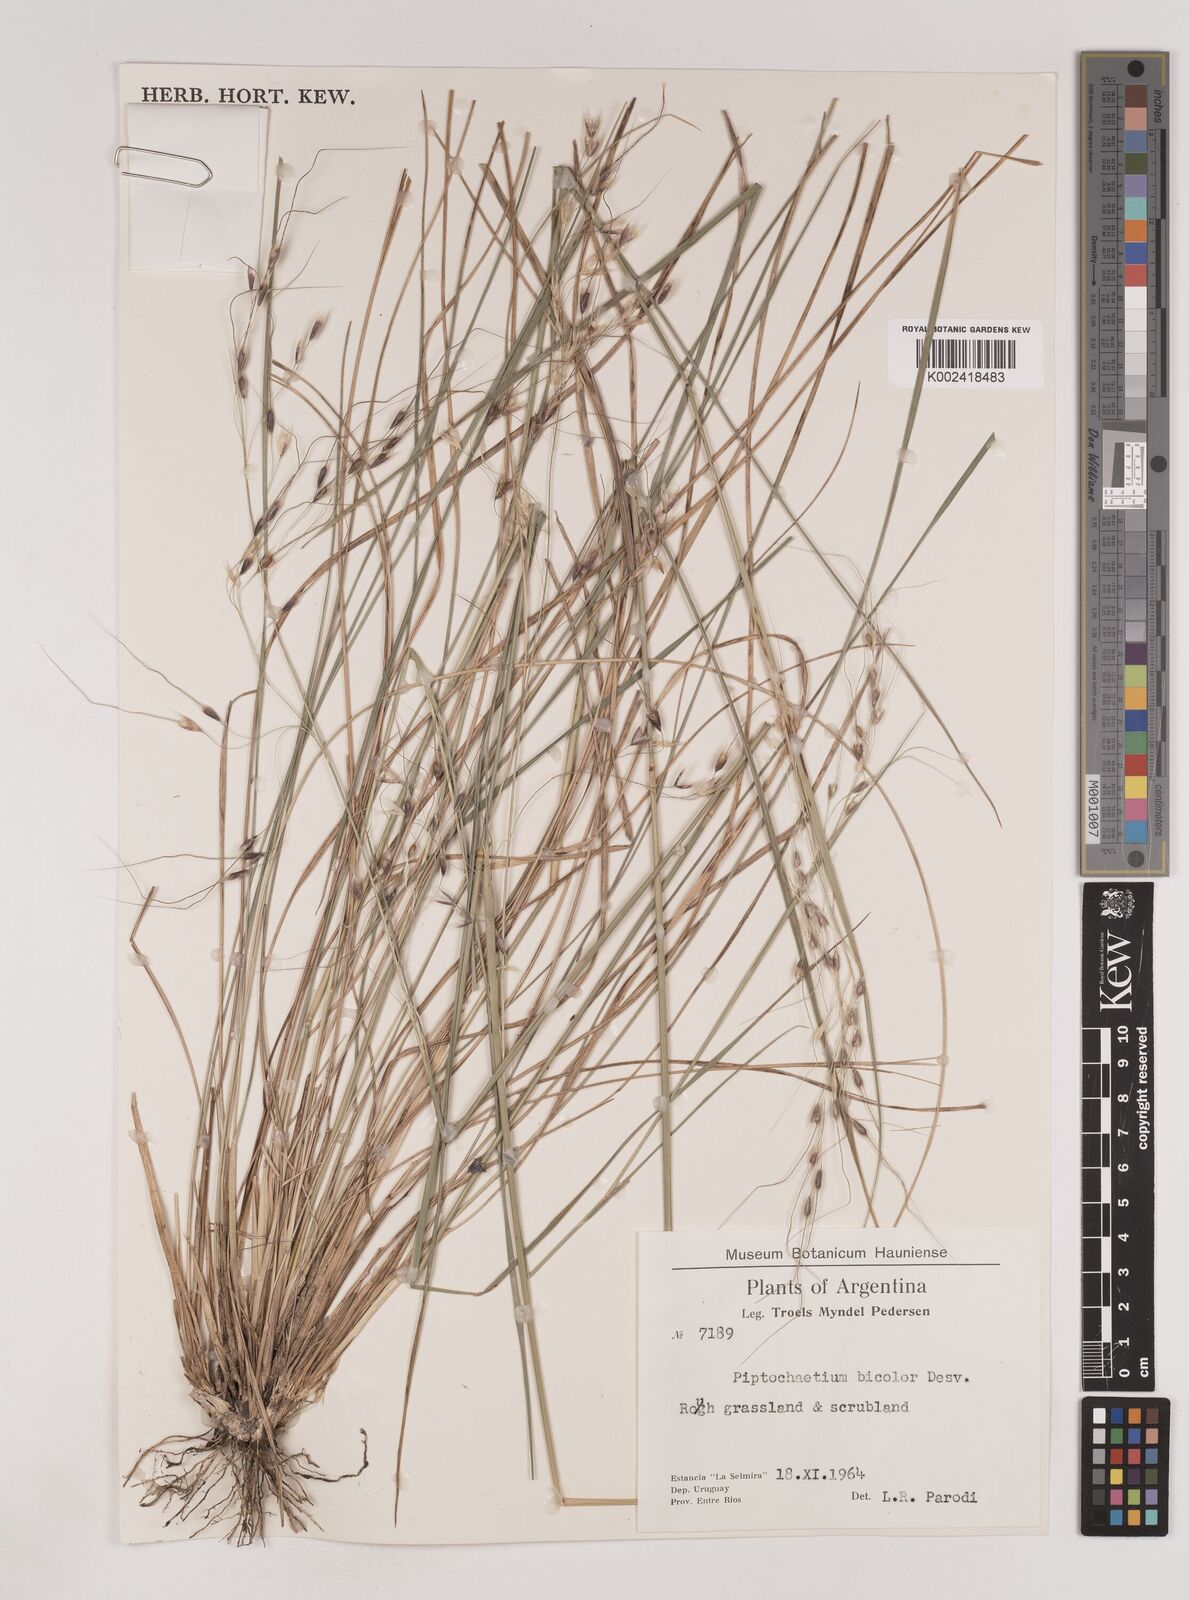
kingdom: Plantae
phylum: Tracheophyta
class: Liliopsida
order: Poales
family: Poaceae
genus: Piptochaetium
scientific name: Piptochaetium bicolor
